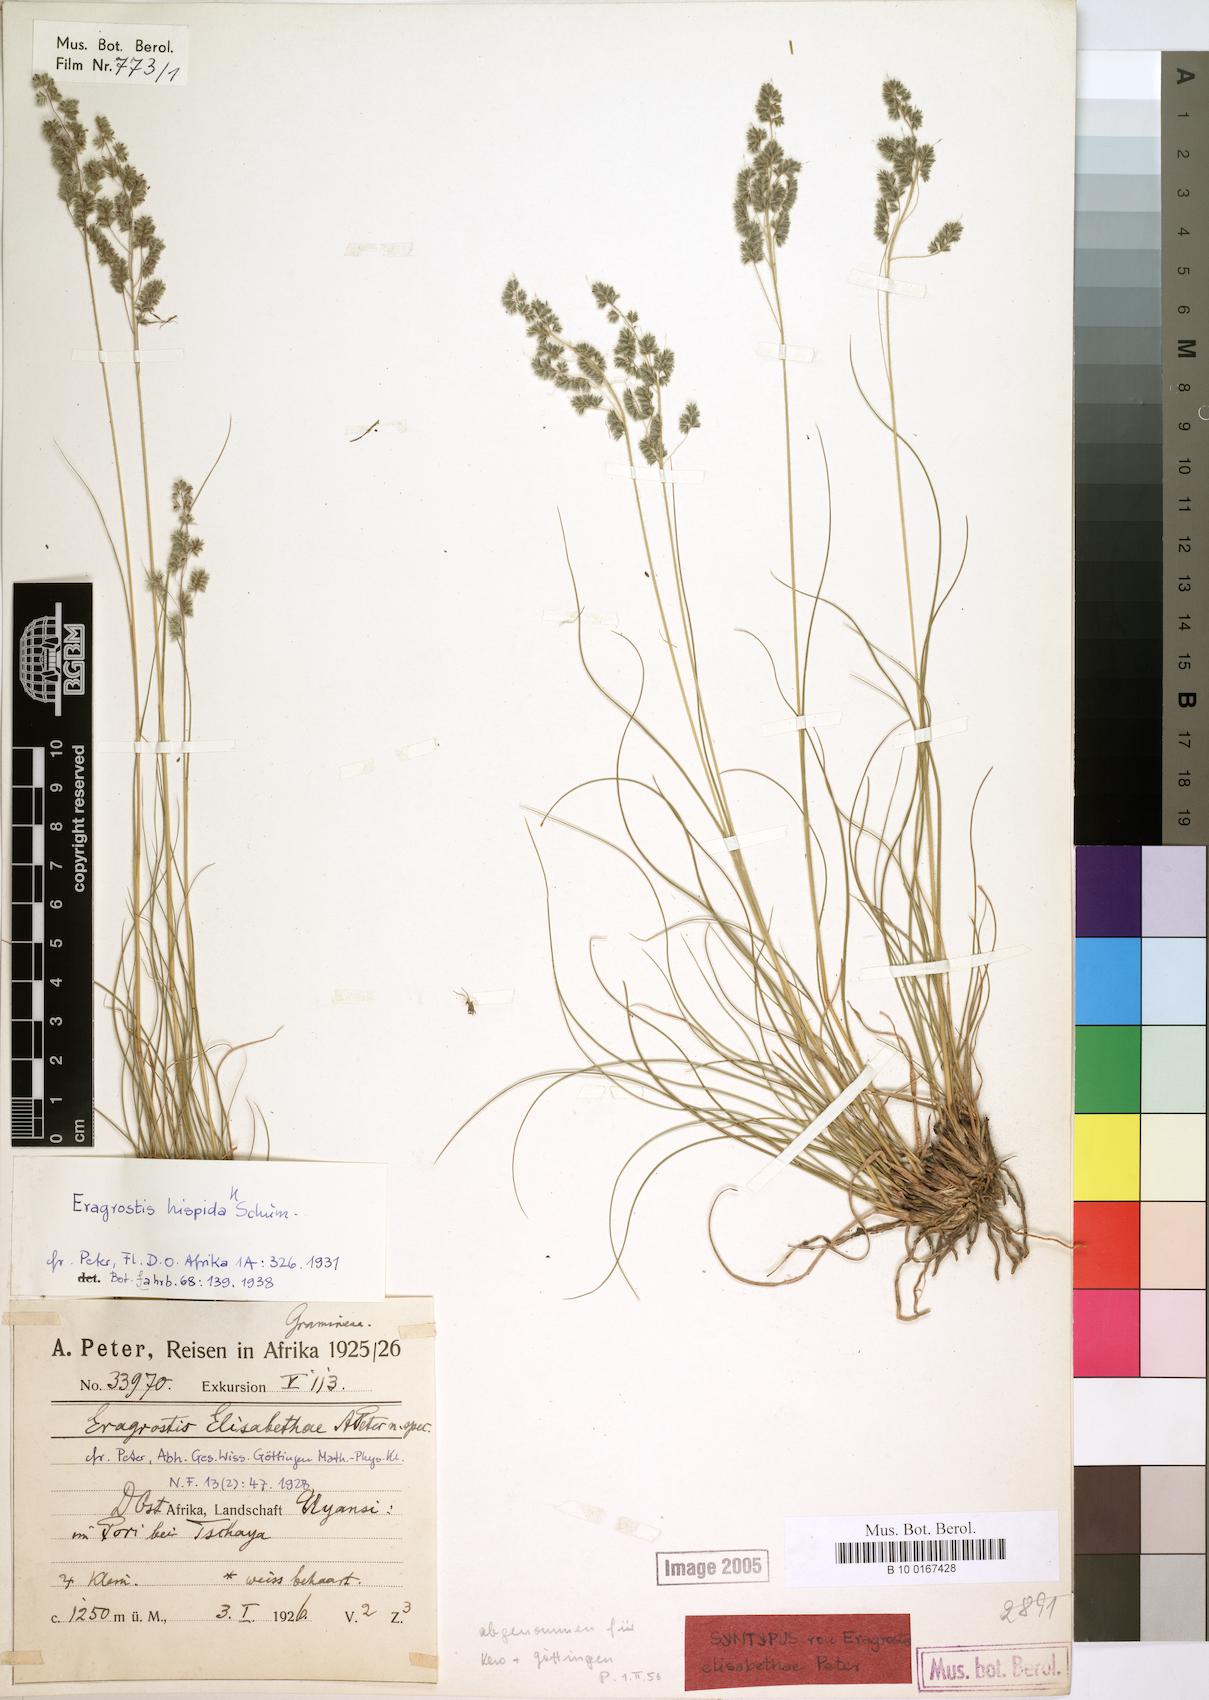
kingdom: Plantae
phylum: Tracheophyta
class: Liliopsida
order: Poales
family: Poaceae
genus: Eragrostis
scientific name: Eragrostis hispida
